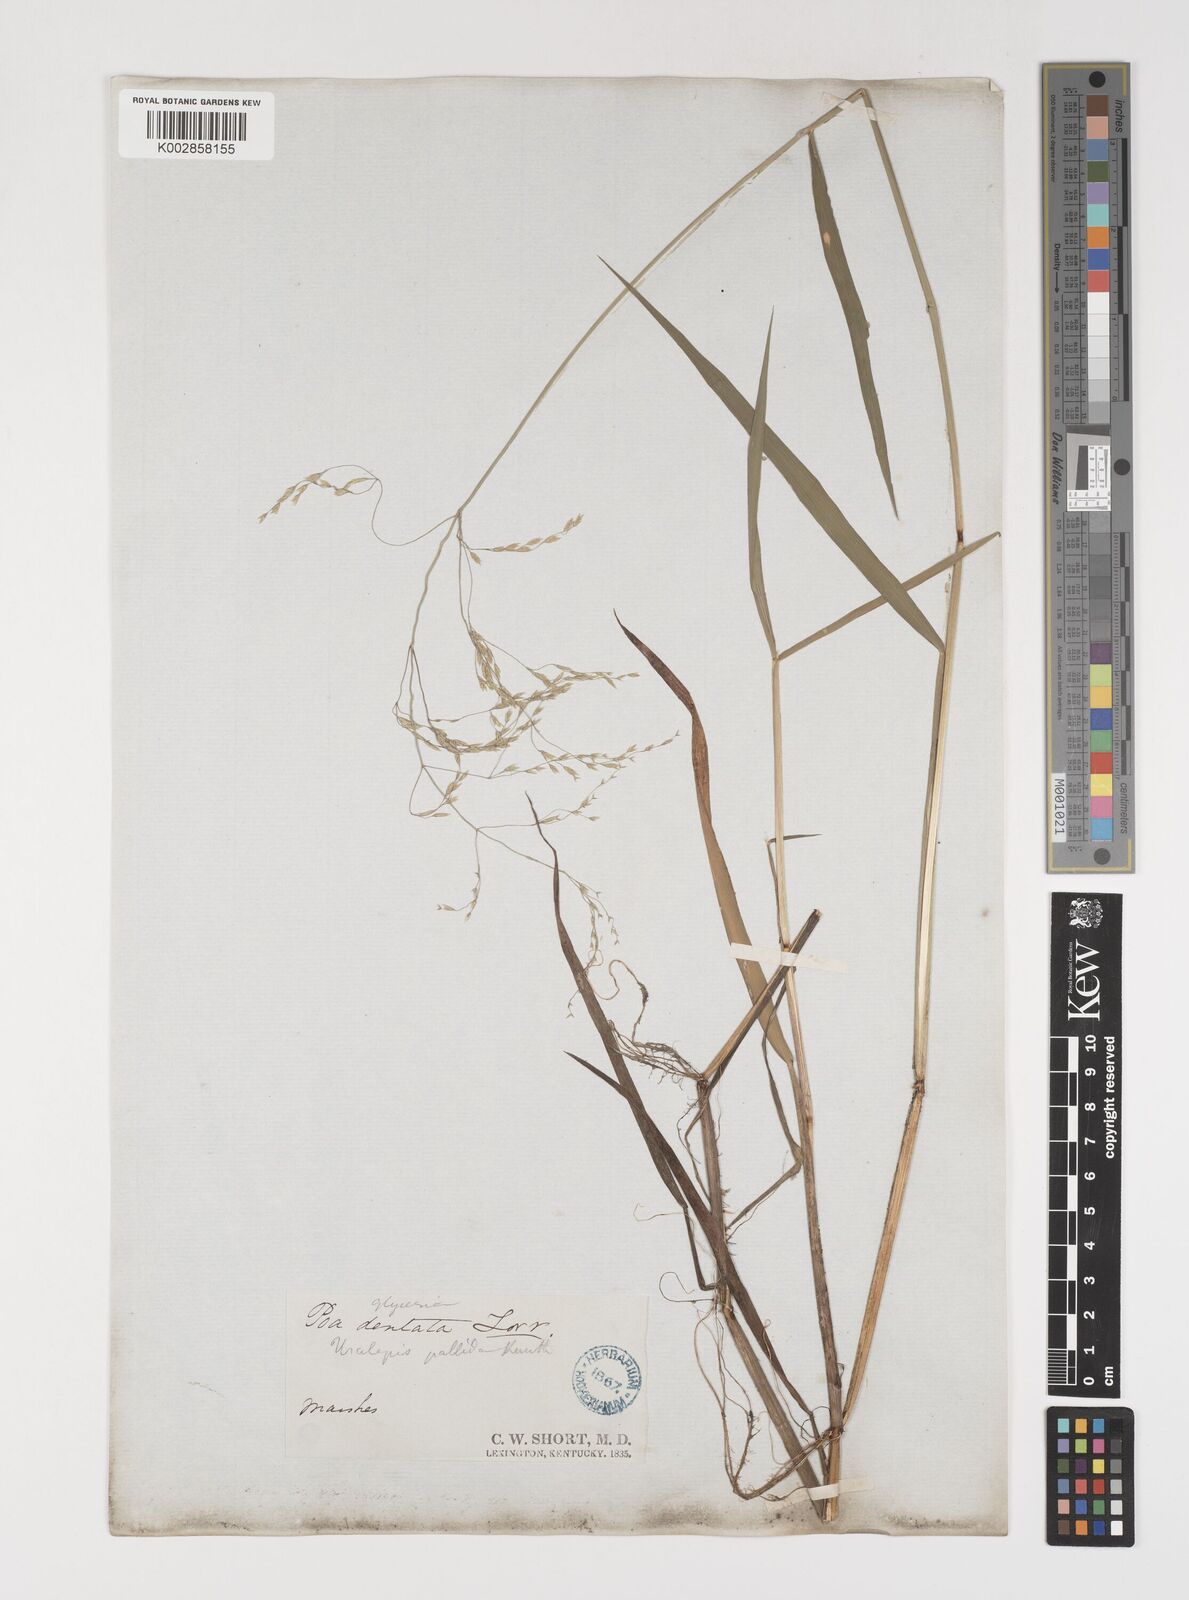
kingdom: Plantae
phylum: Tracheophyta
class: Liliopsida
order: Poales
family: Poaceae
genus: Torreyochloa
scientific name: Torreyochloa pallida
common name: Pale false mannagrass
